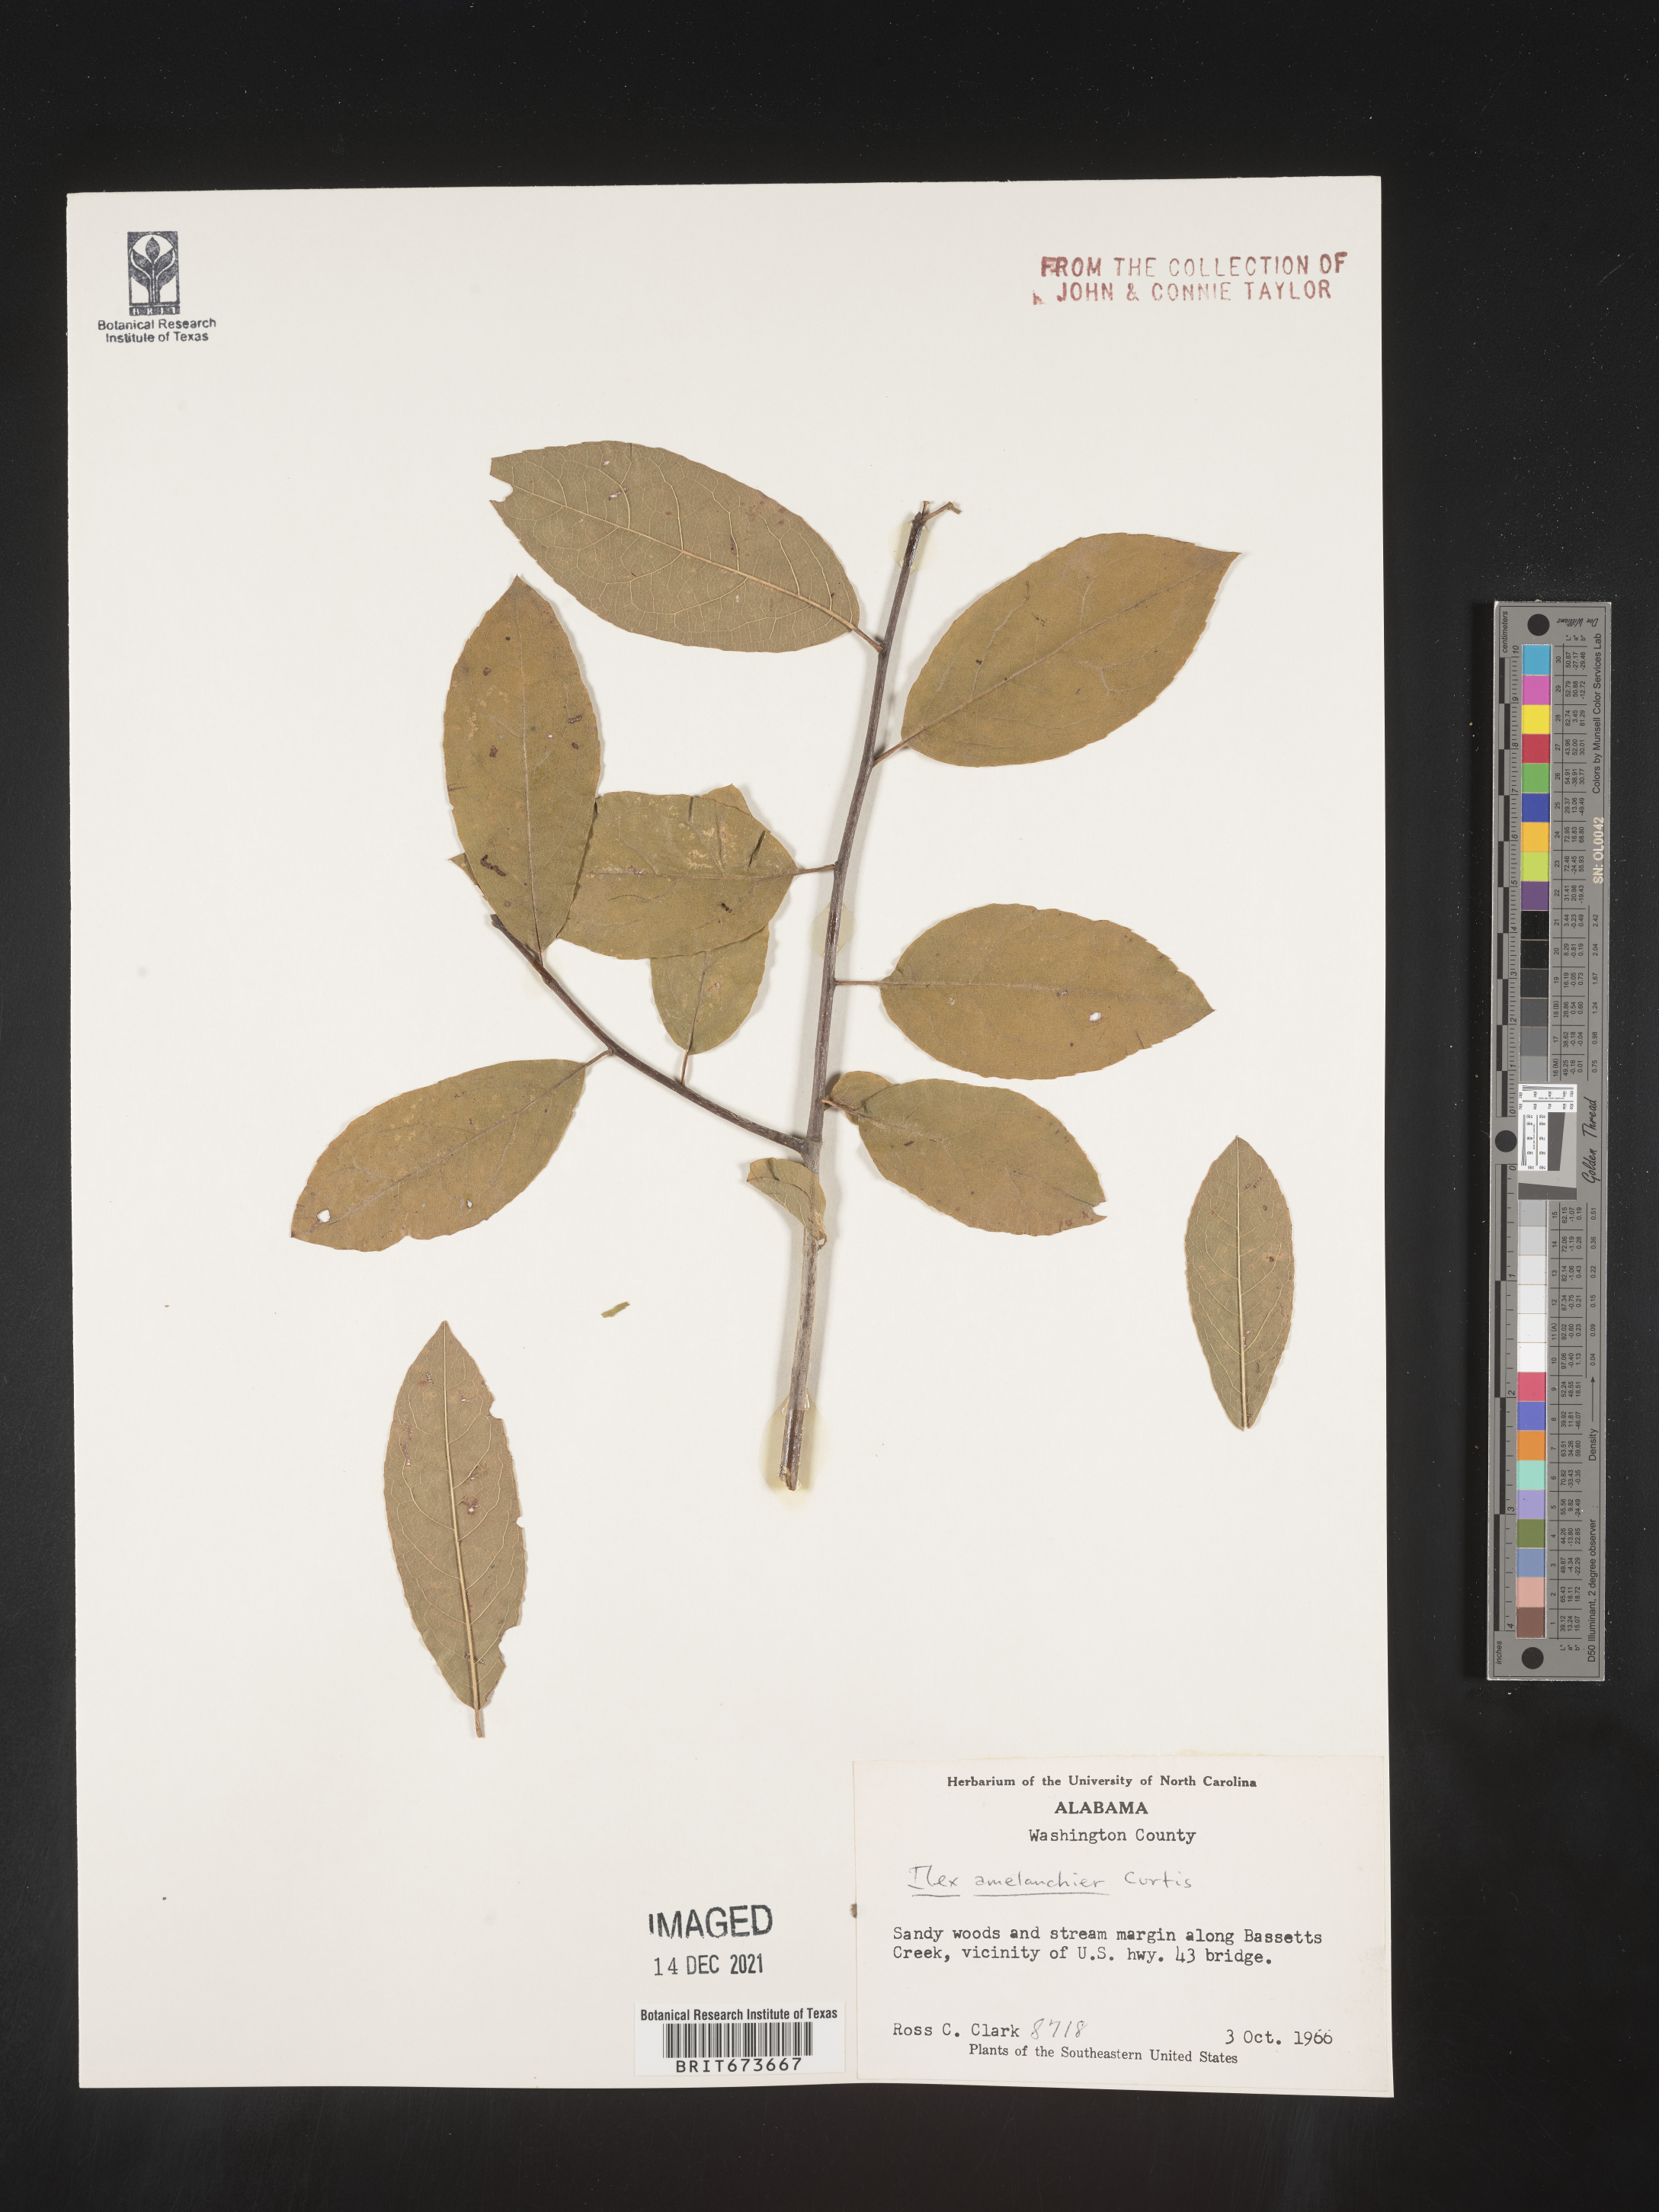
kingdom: Plantae
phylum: Tracheophyta
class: Magnoliopsida
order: Aquifoliales
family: Aquifoliaceae
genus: Ilex
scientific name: Ilex
